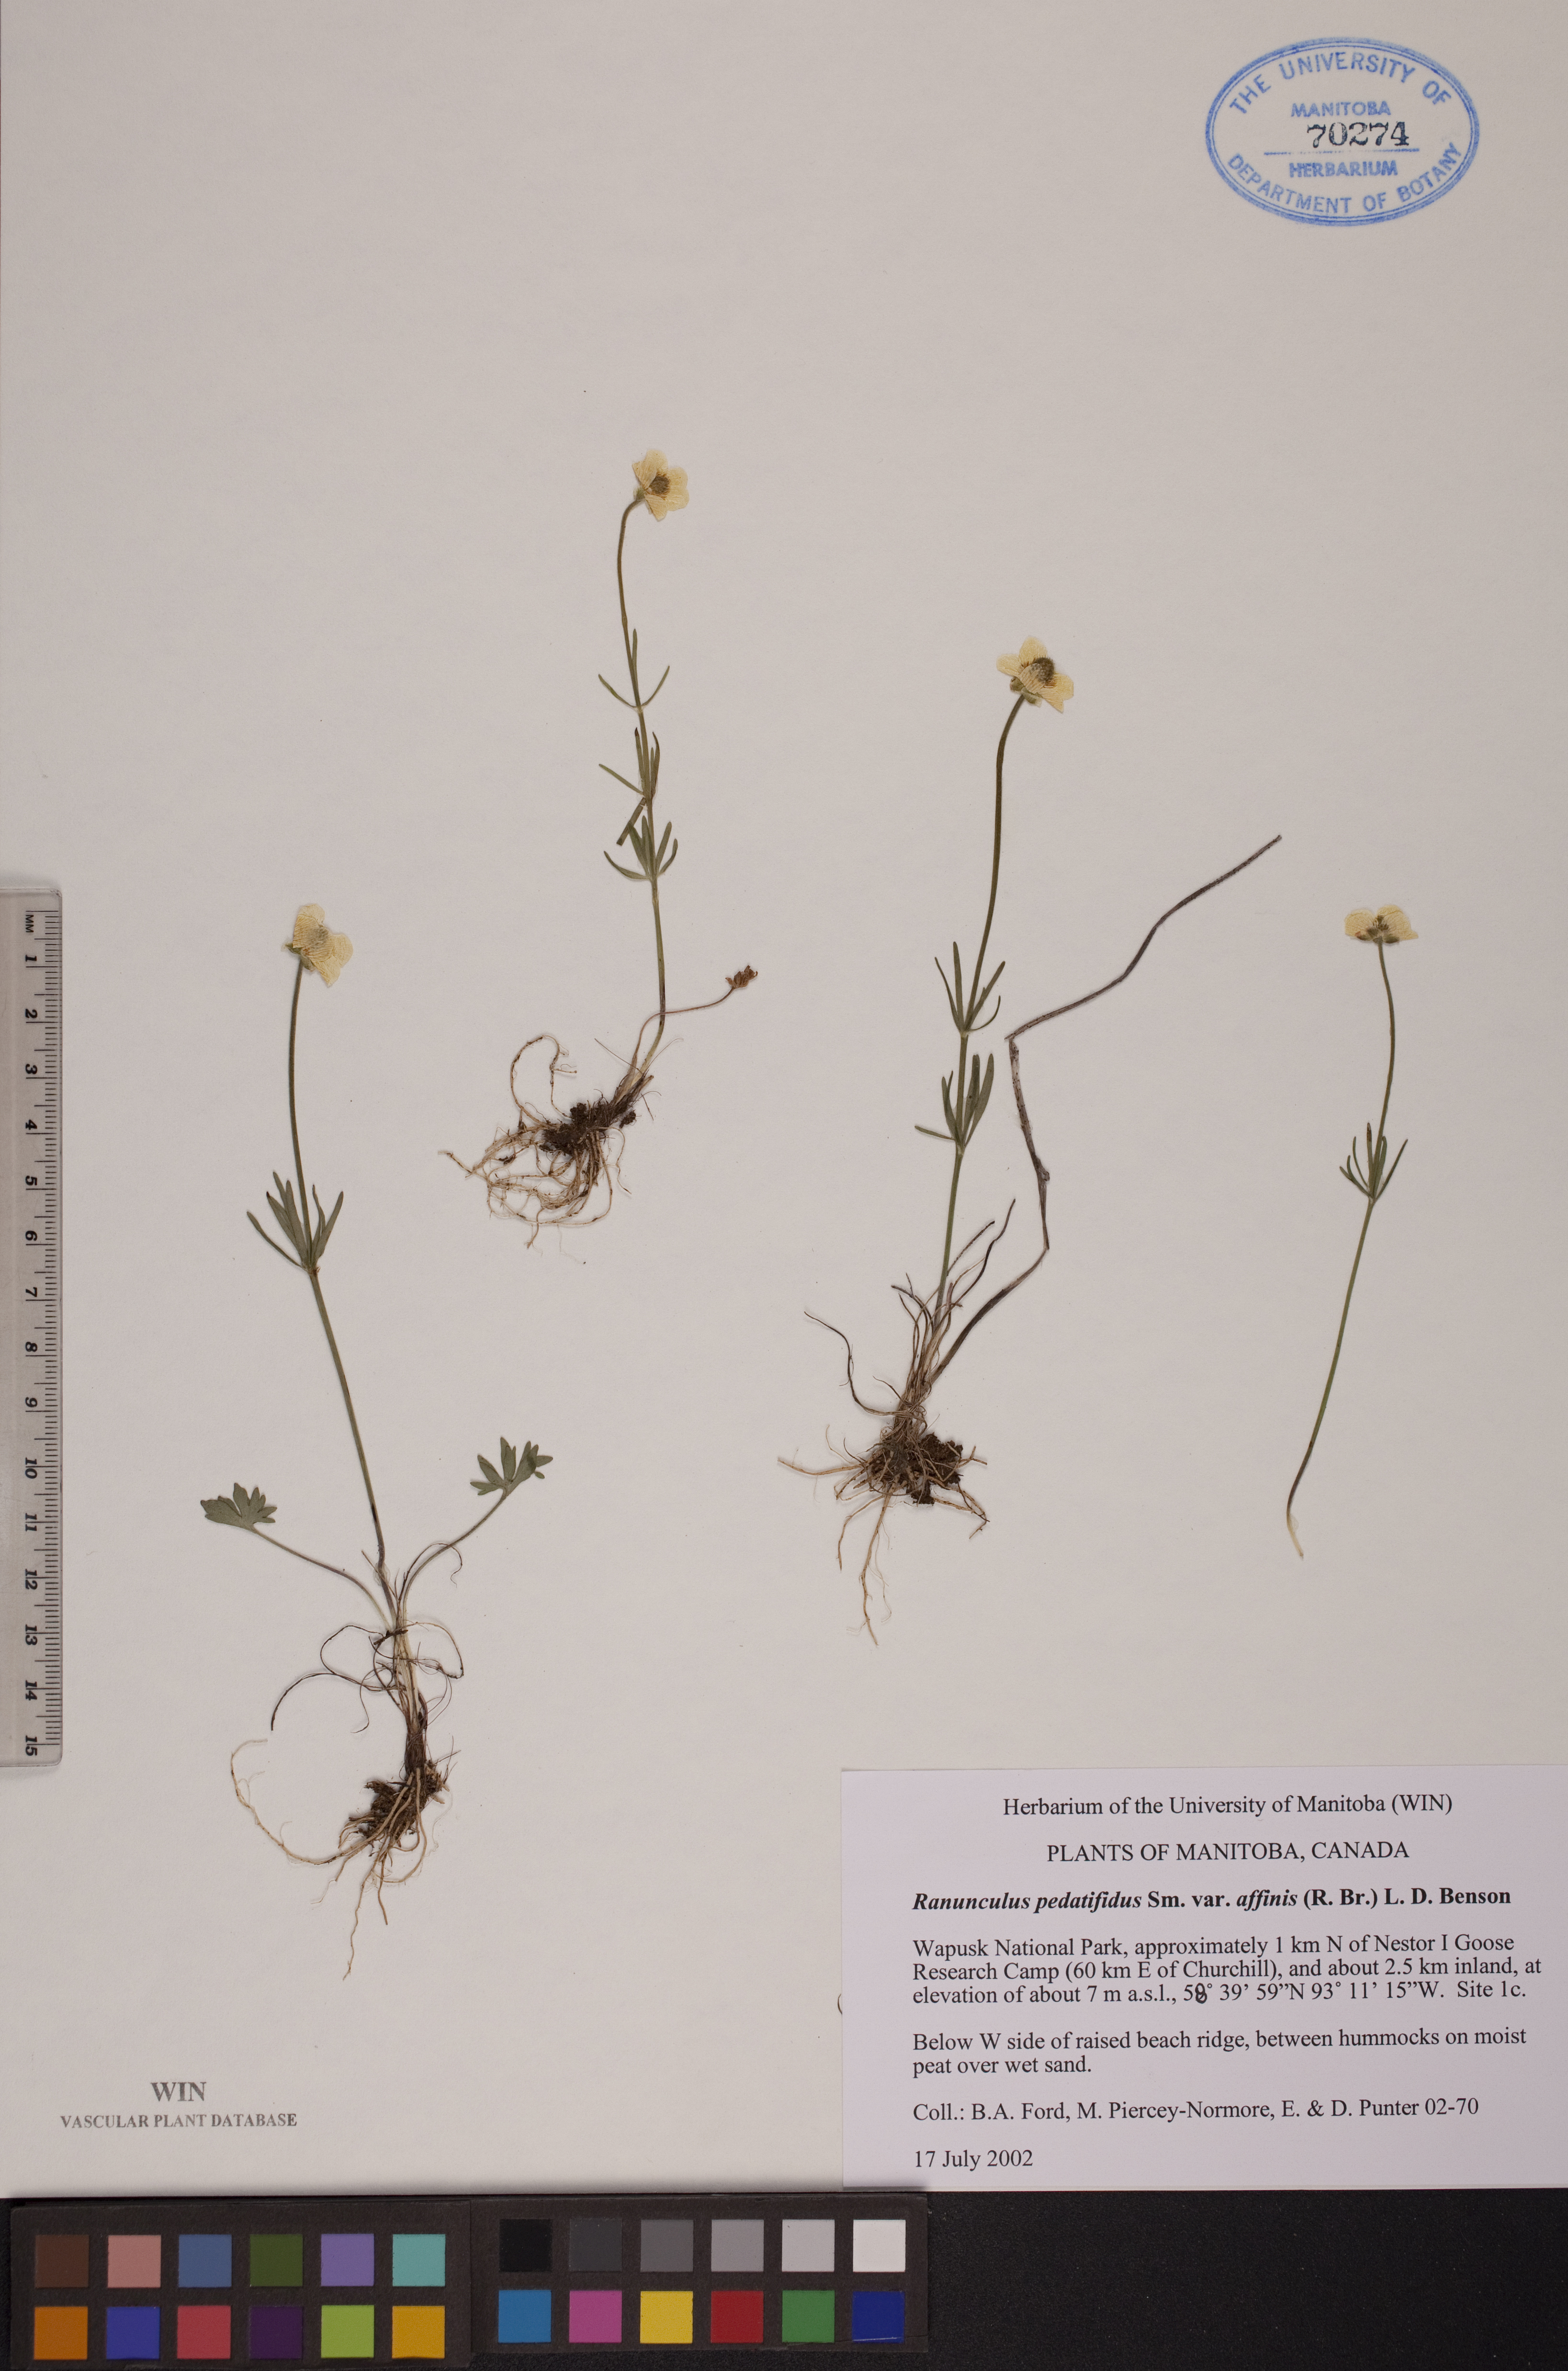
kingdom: Plantae
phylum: Tracheophyta
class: Magnoliopsida
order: Ranunculales
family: Ranunculaceae
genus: Ranunculus
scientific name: Ranunculus arcticus
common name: Bird's-foot buttercup
